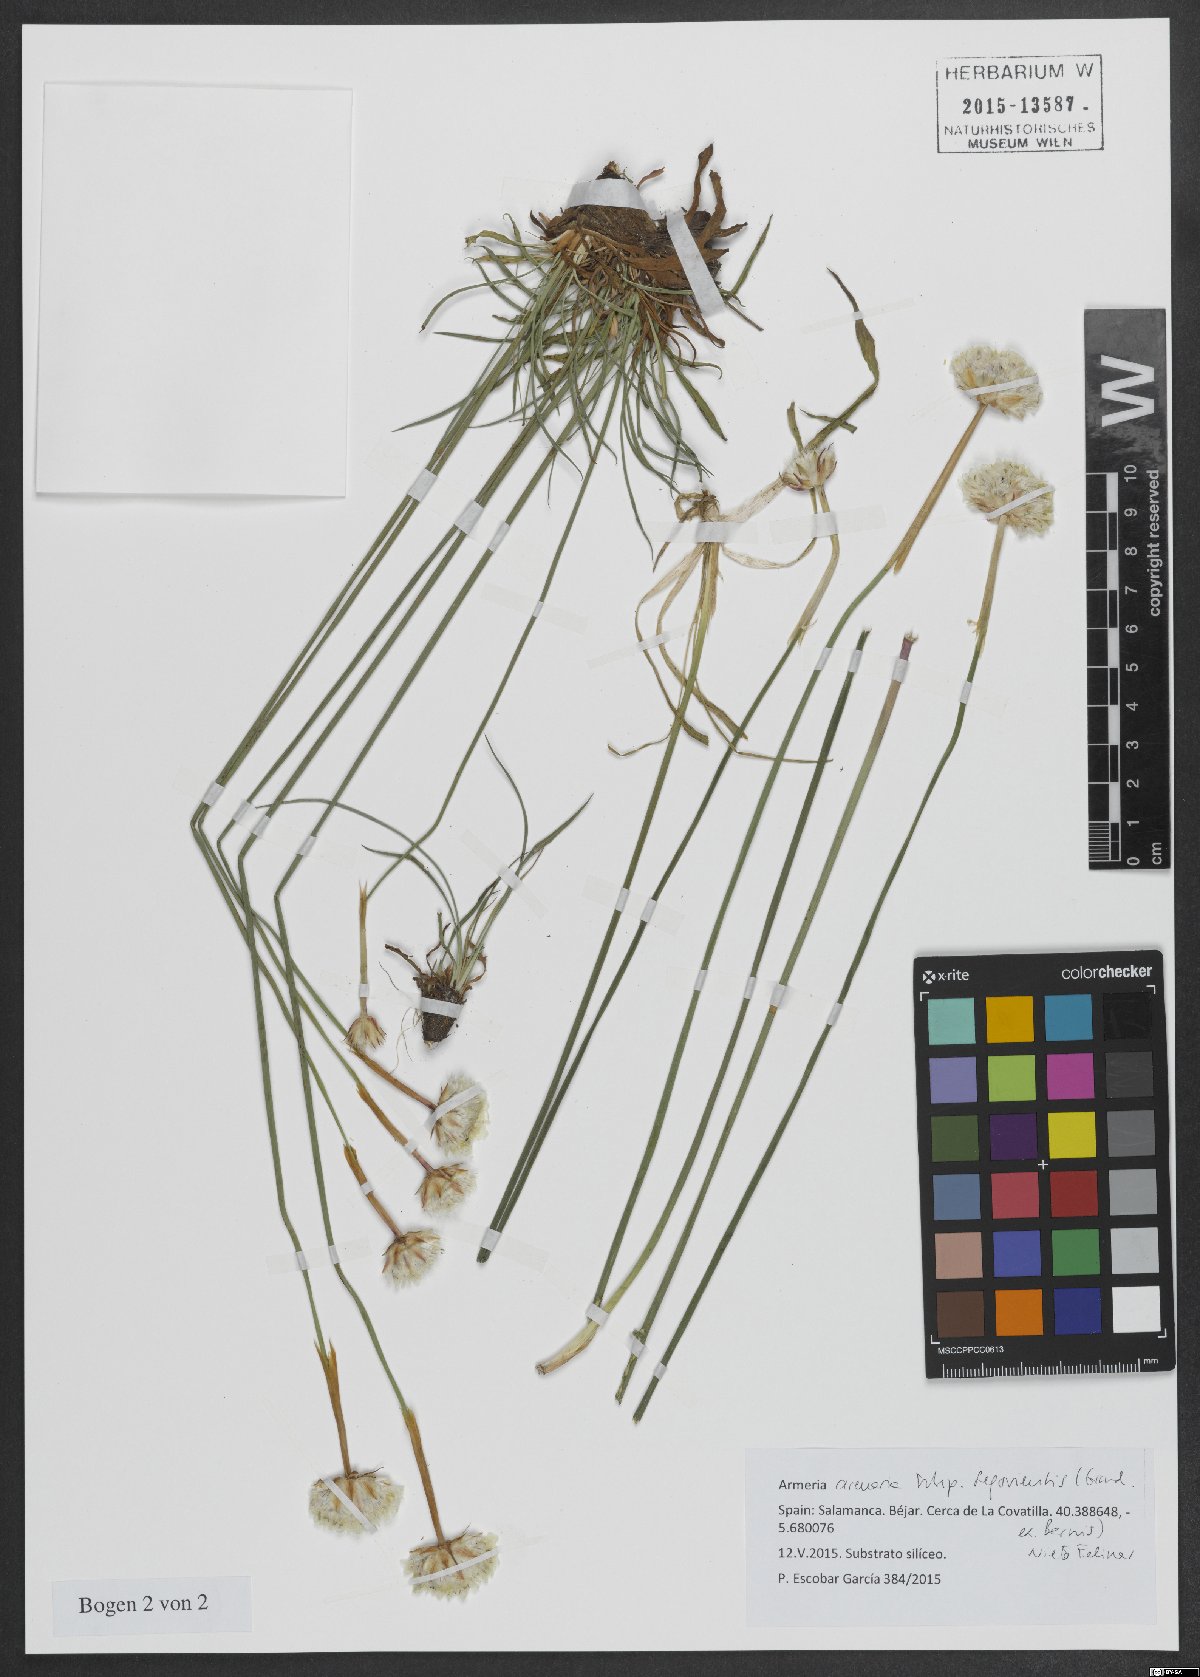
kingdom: Plantae
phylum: Tracheophyta
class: Magnoliopsida
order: Caryophyllales
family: Plumbaginaceae
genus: Armeria
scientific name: Armeria arenaria
